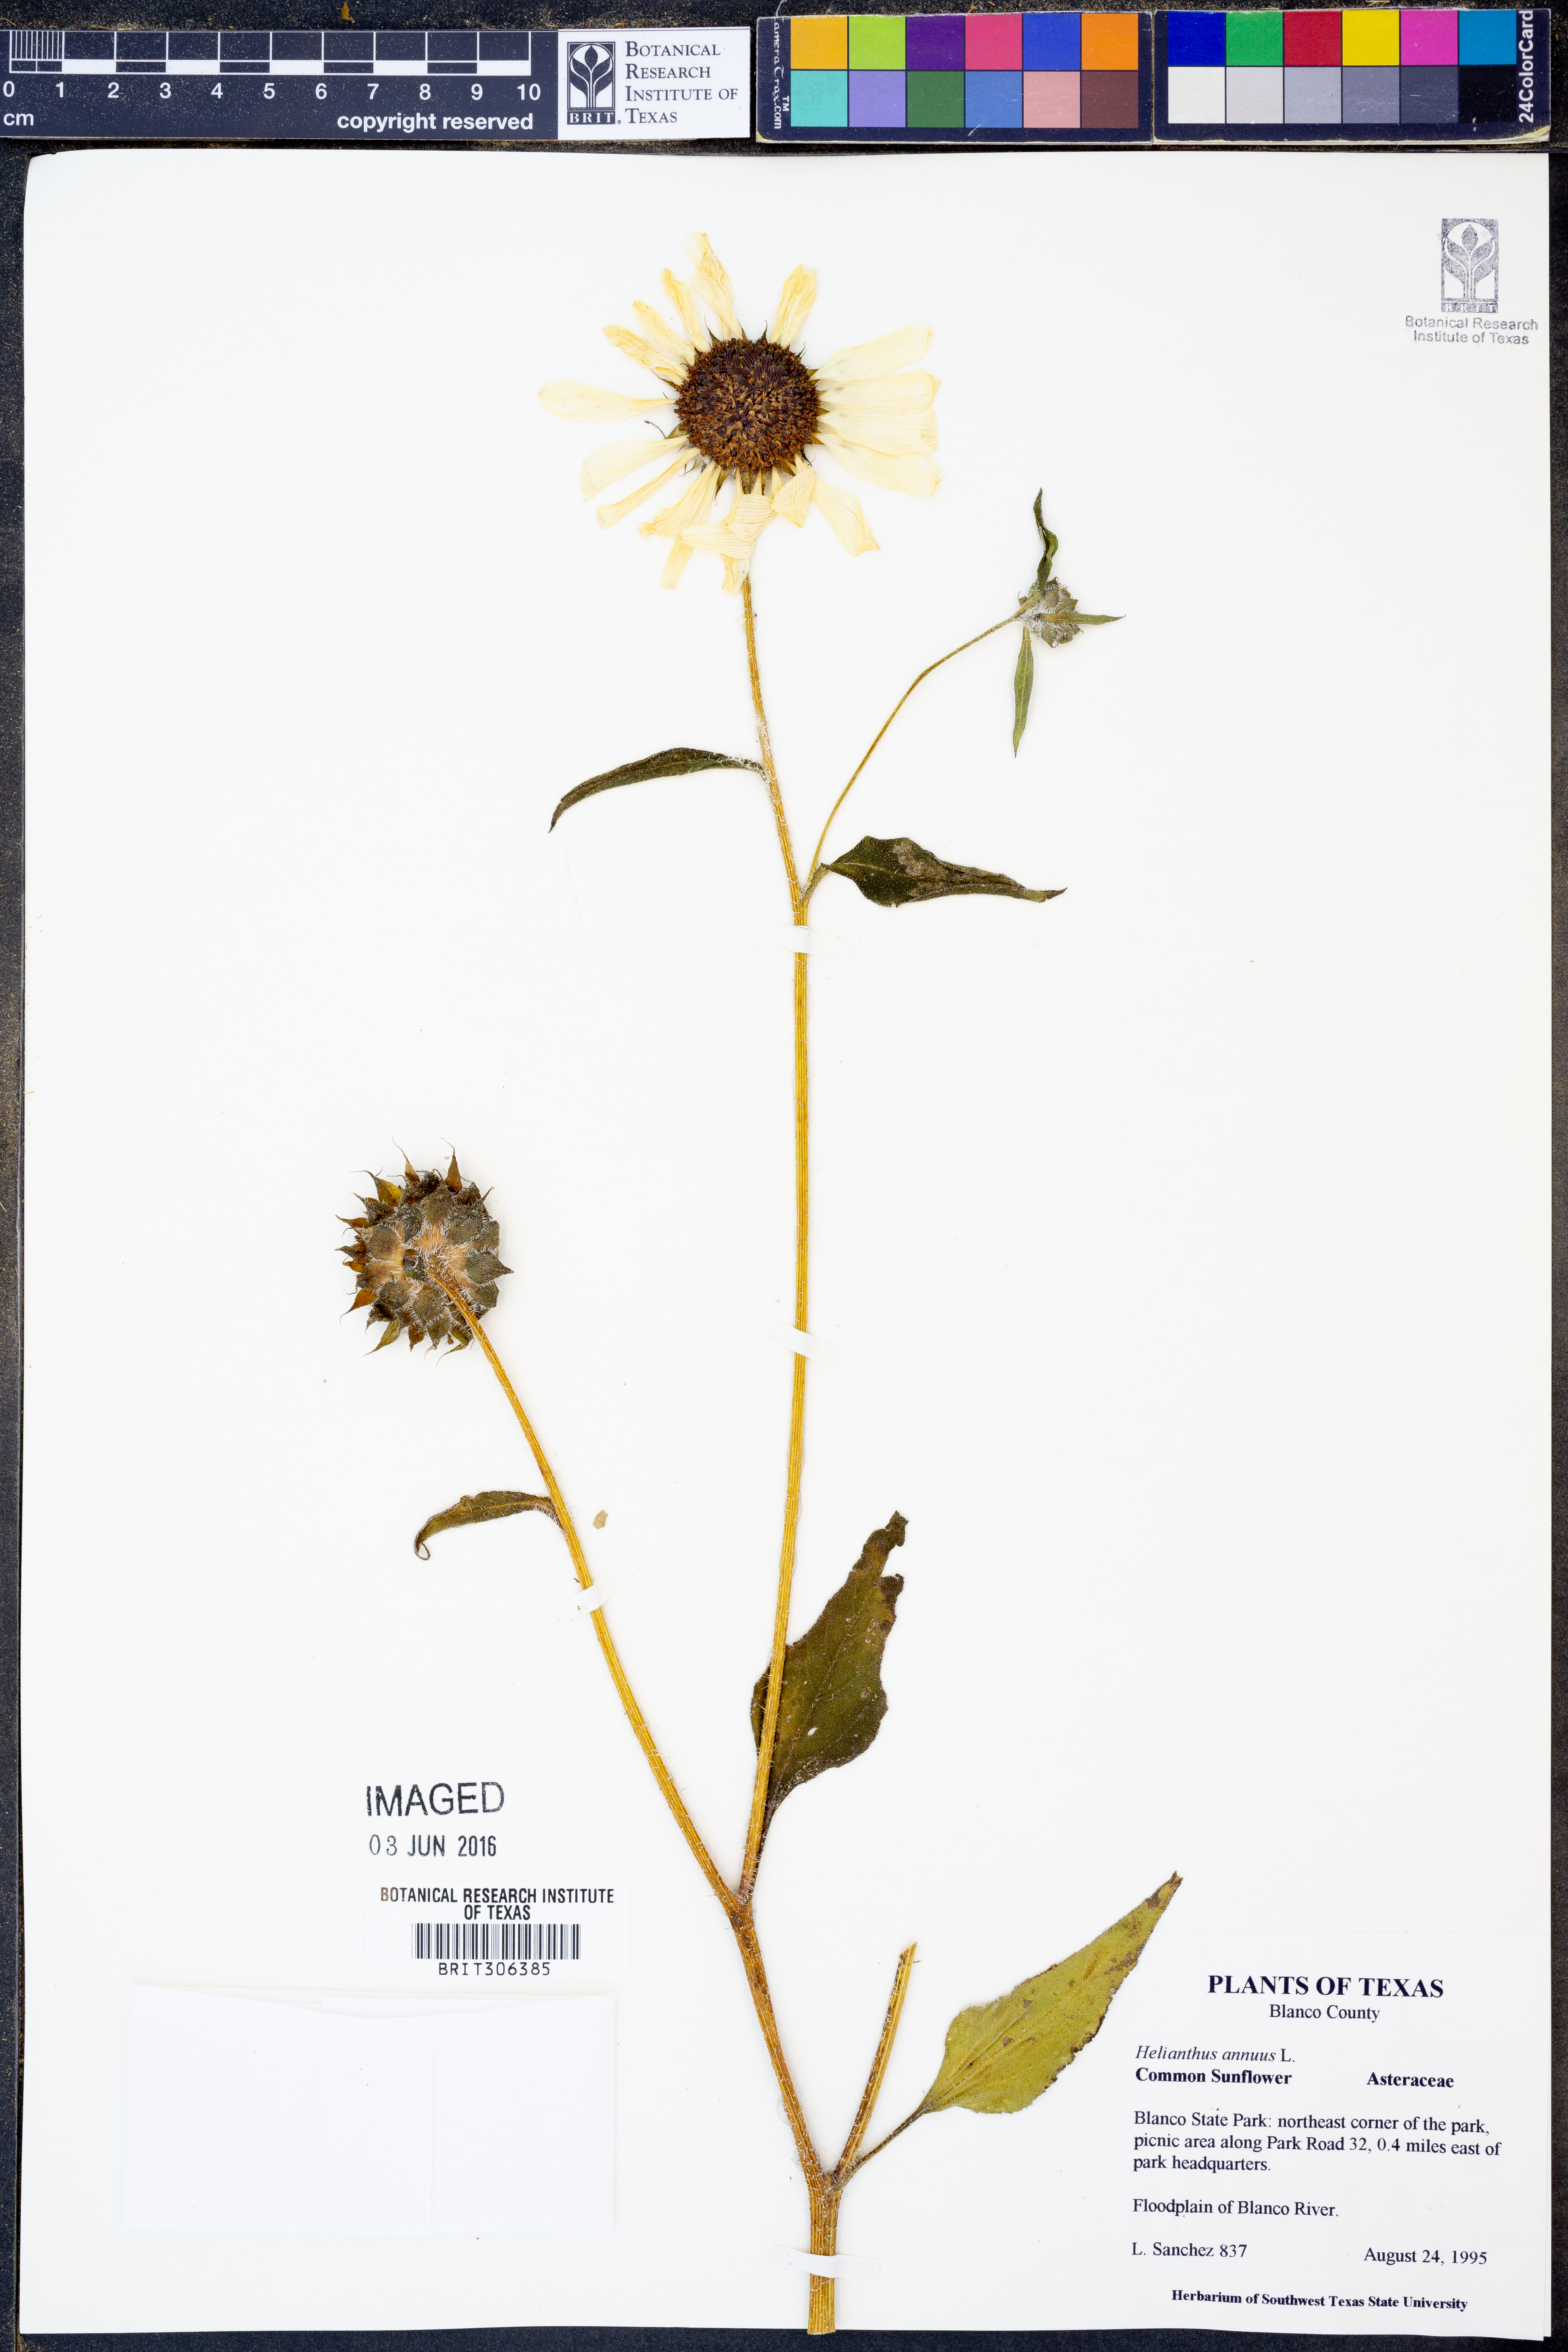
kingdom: Plantae
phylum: Tracheophyta
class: Magnoliopsida
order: Asterales
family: Asteraceae
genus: Helianthus
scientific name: Helianthus annuus
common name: Sunflower
